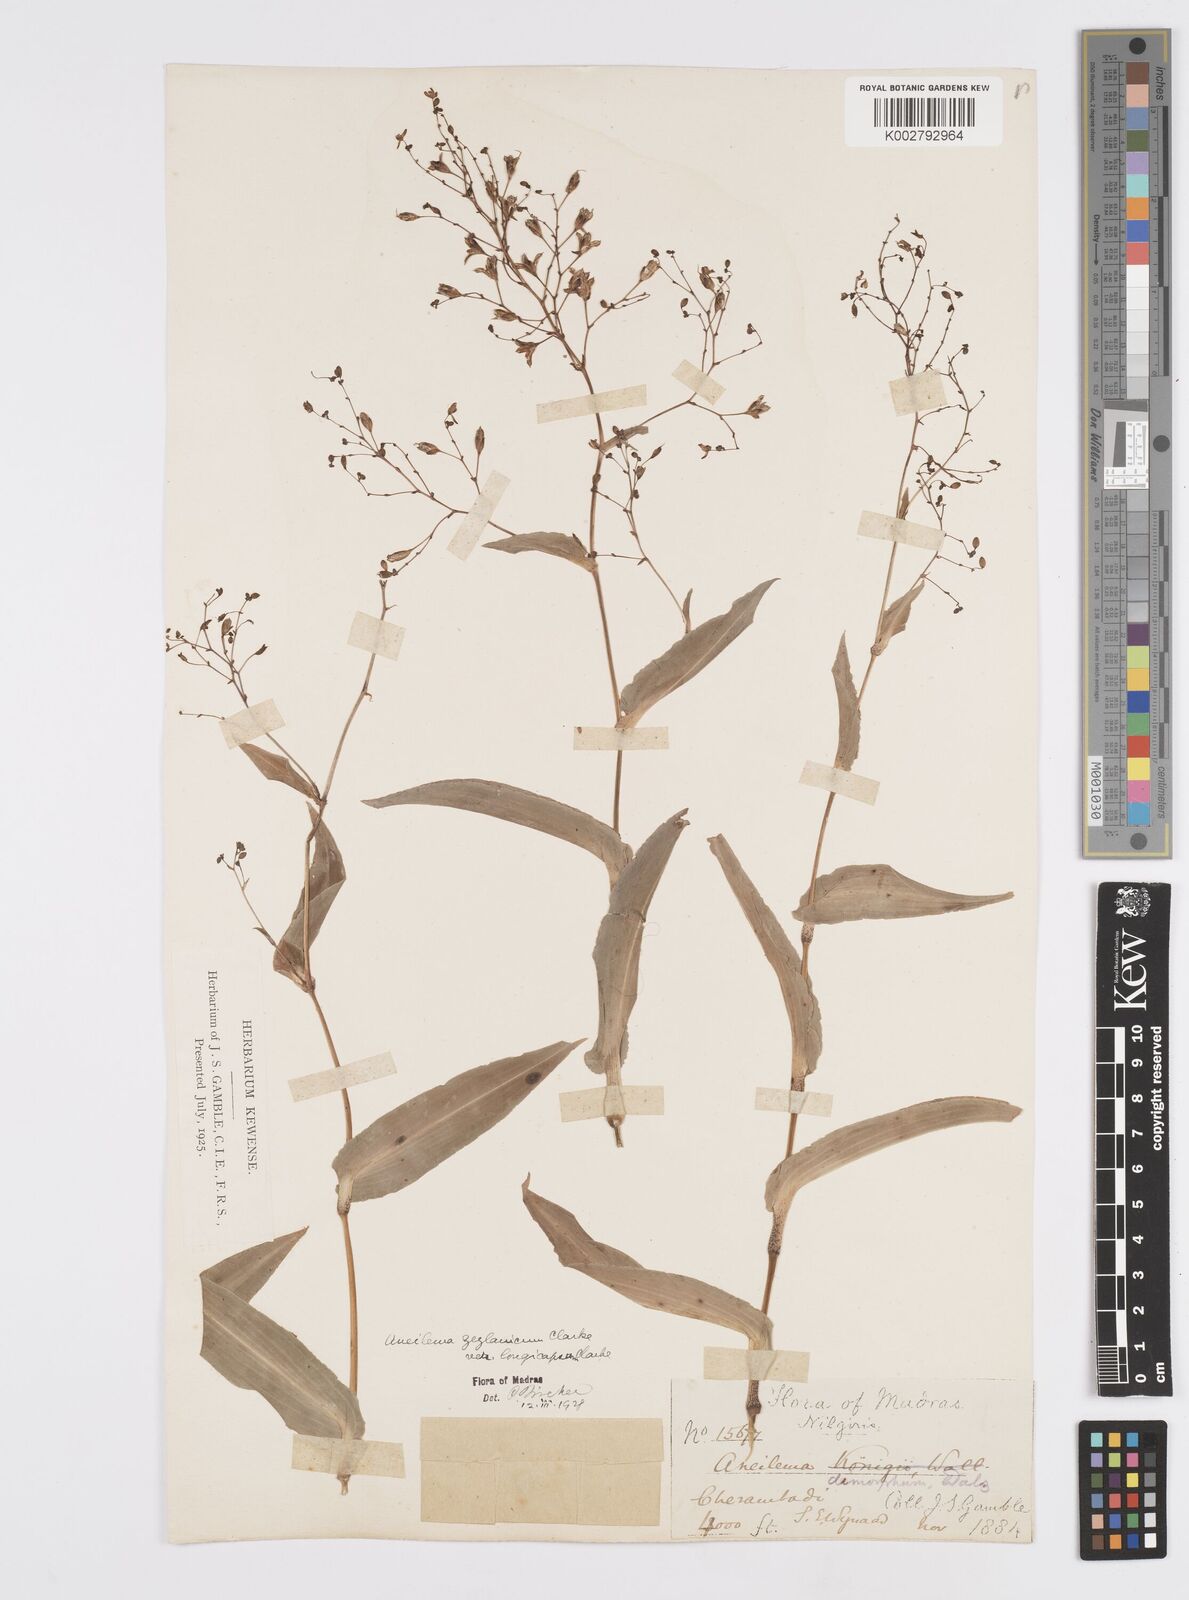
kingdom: Plantae
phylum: Tracheophyta
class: Liliopsida
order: Commelinales
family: Commelinaceae
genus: Murdannia
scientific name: Murdannia zeylanica
